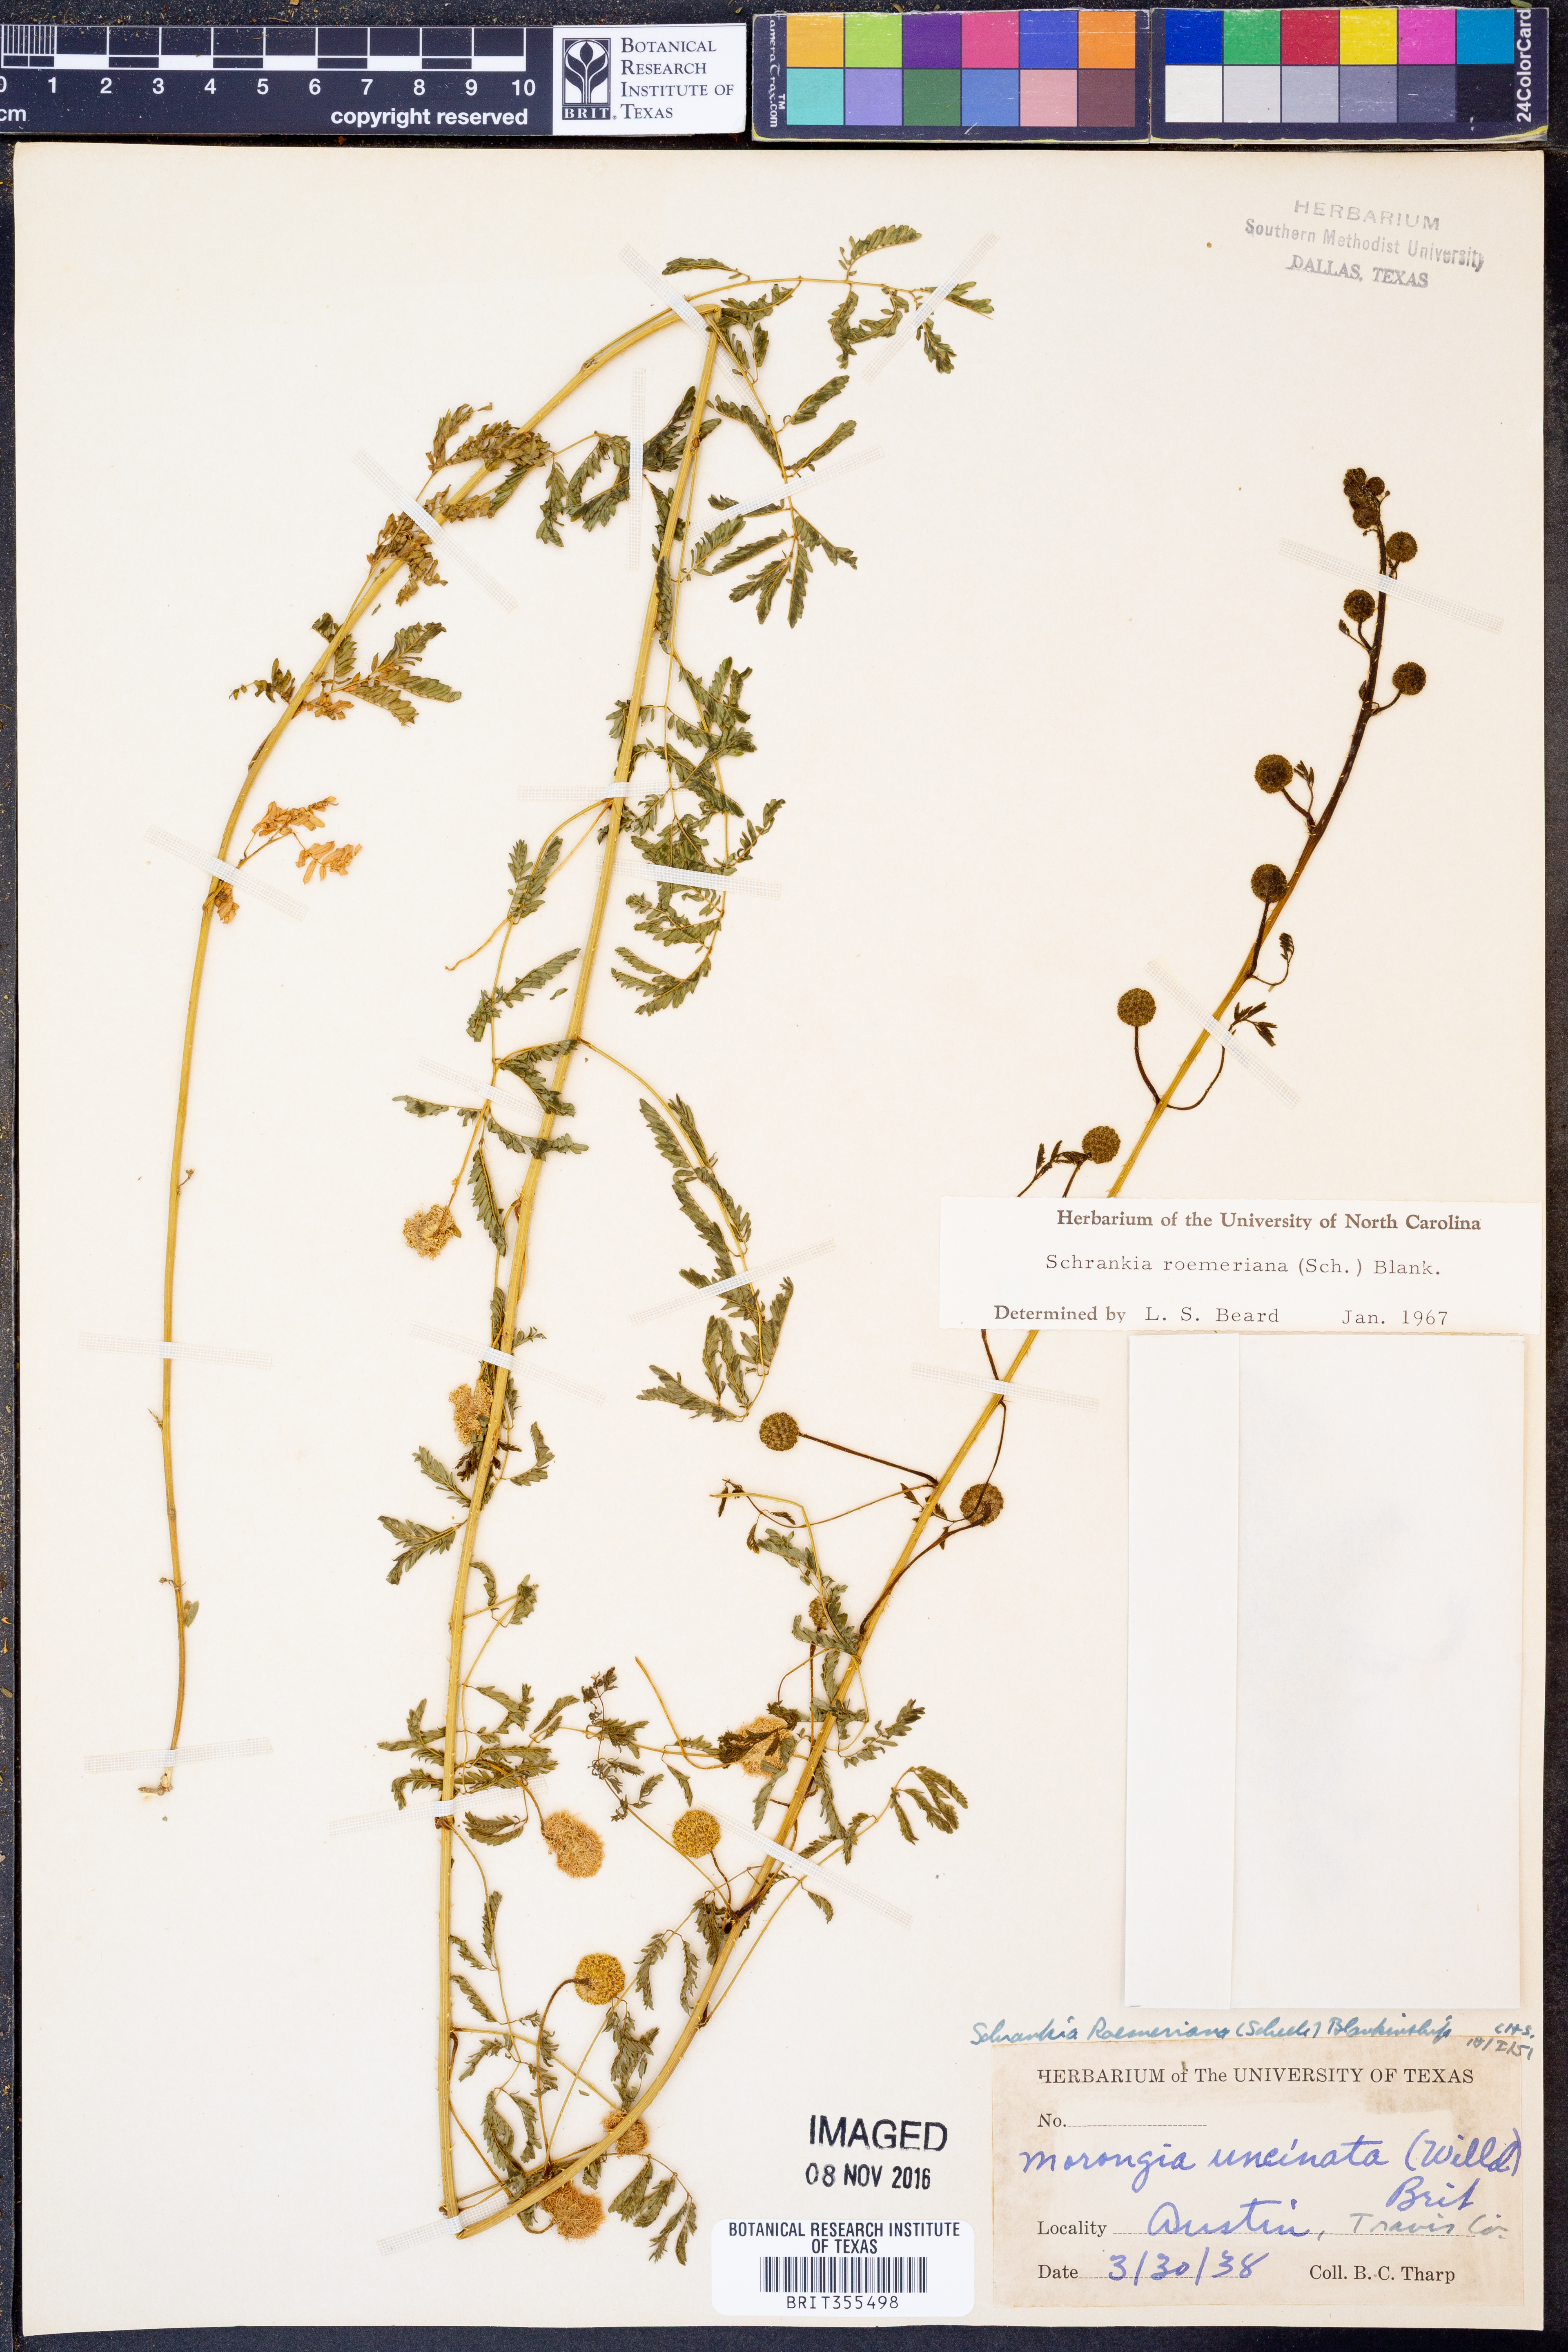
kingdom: Plantae
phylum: Tracheophyta
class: Magnoliopsida
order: Fabales
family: Fabaceae
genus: Mimosa
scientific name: Mimosa quadrivalvis
